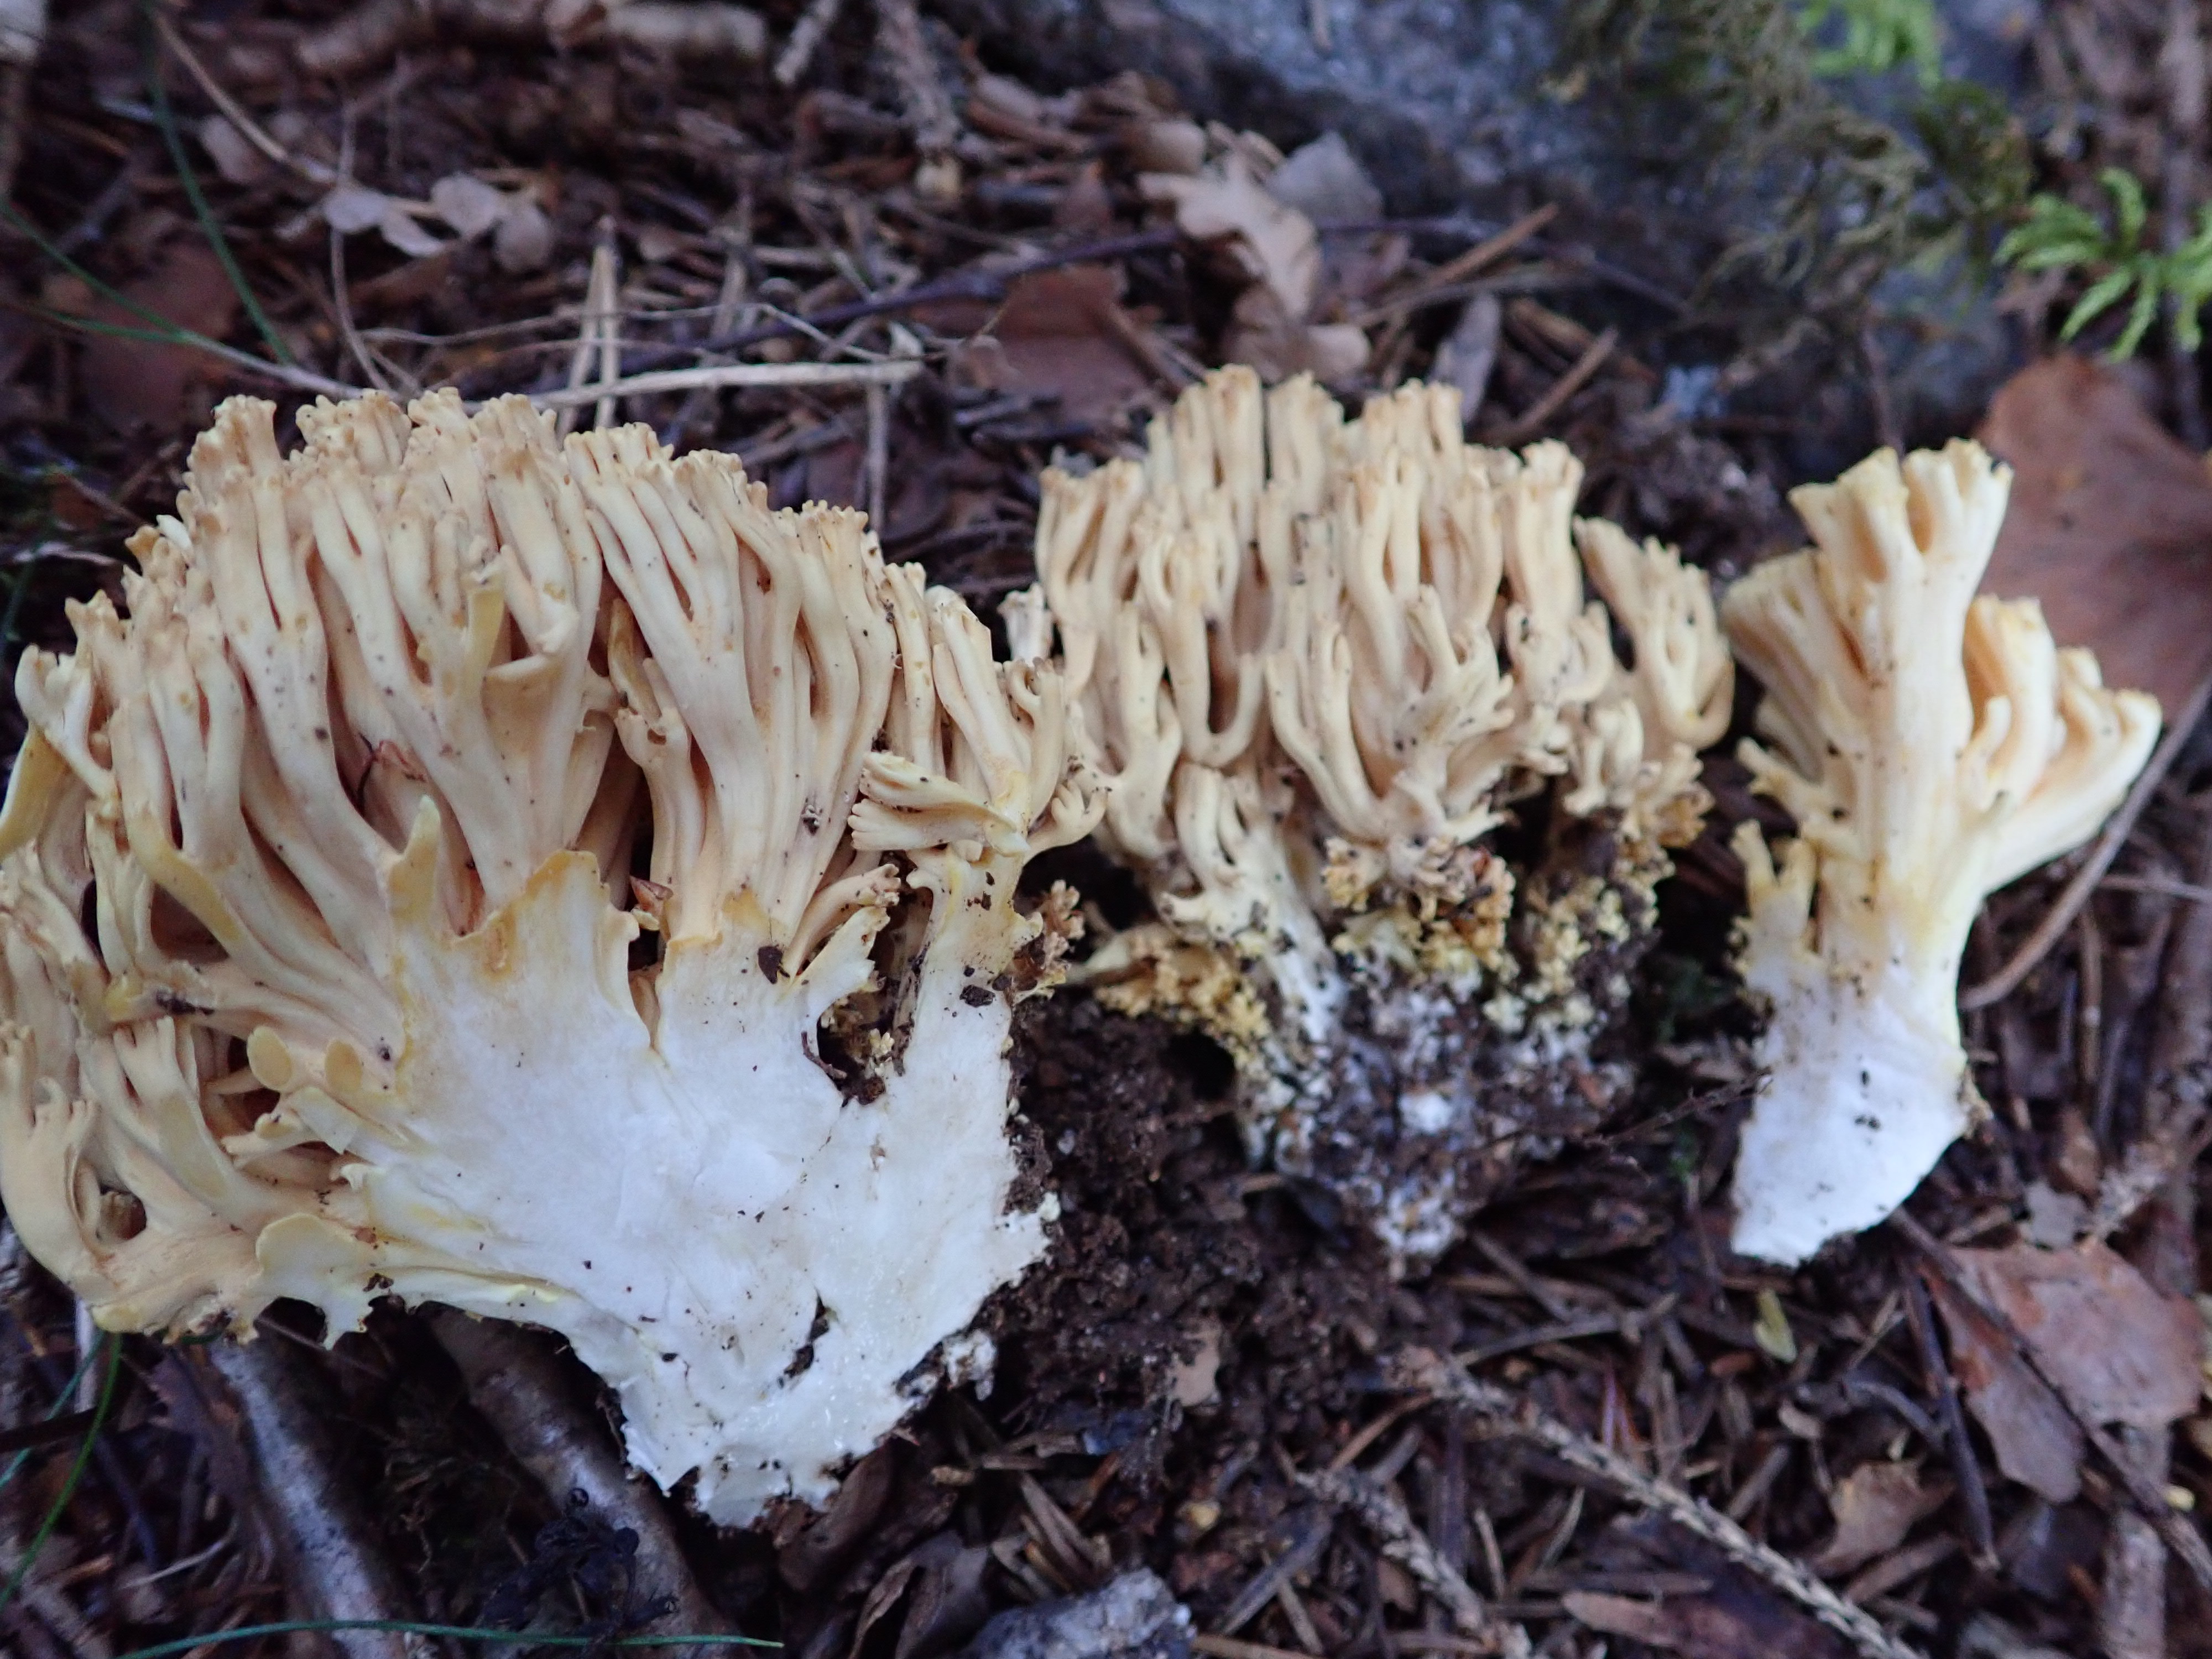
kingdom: Fungi
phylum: Basidiomycota
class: Agaricomycetes
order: Gomphales
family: Gomphaceae
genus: Ramaria
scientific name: Ramaria lutea
